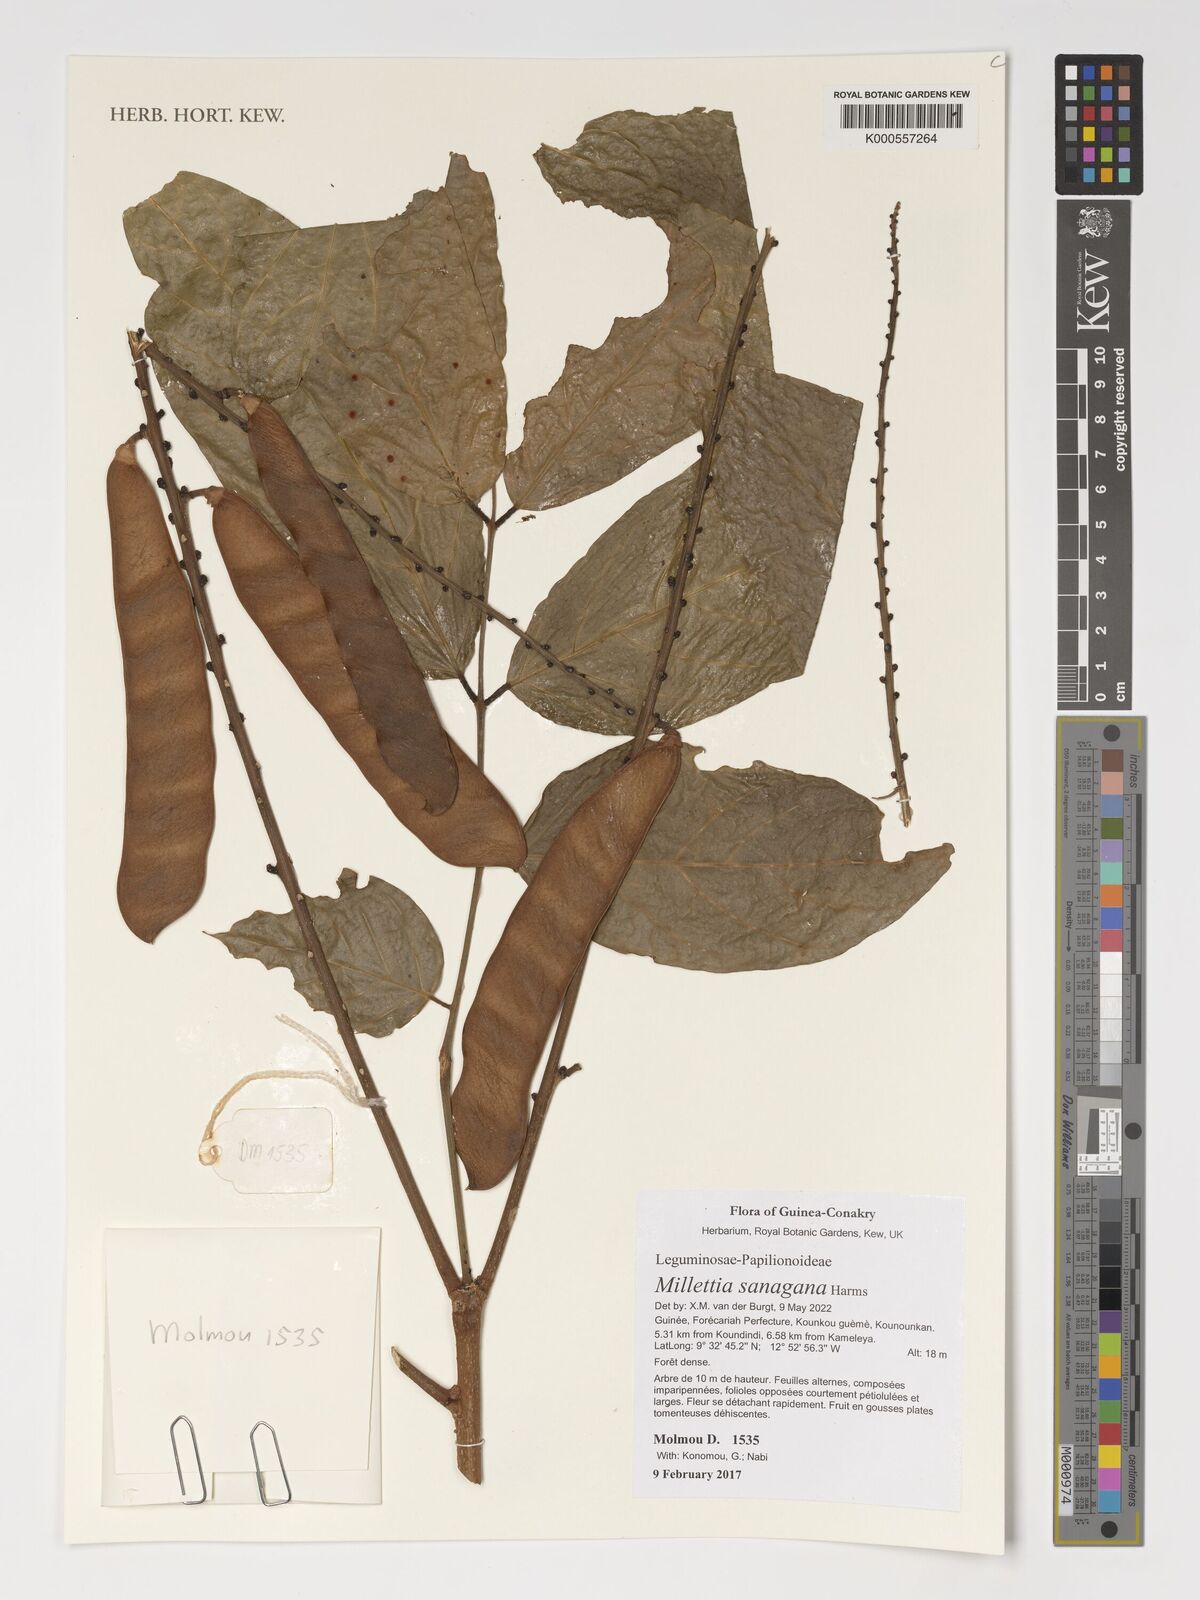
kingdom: Plantae
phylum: Tracheophyta
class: Magnoliopsida
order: Fabales
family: Fabaceae
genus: Millettia
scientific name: Millettia sanagana
